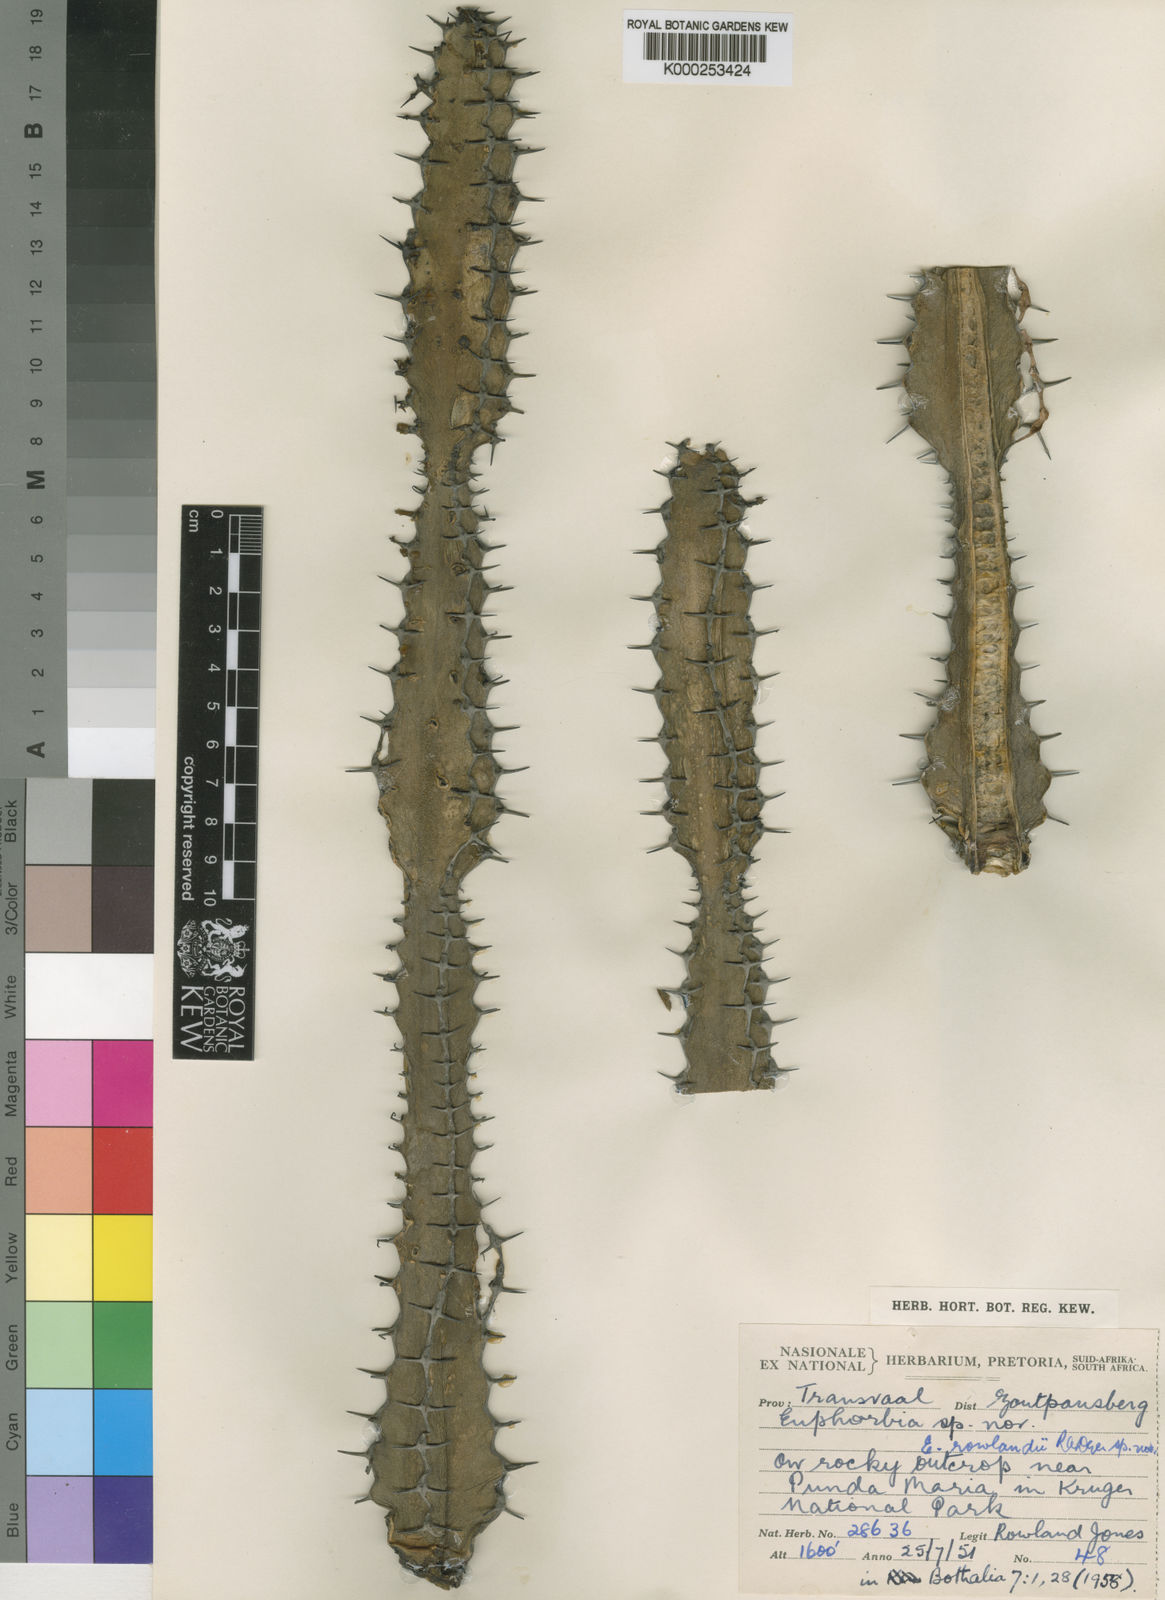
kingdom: Plantae
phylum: Tracheophyta
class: Magnoliopsida
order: Malpighiales
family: Euphorbiaceae
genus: Euphorbia
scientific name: Euphorbia rowlandii
